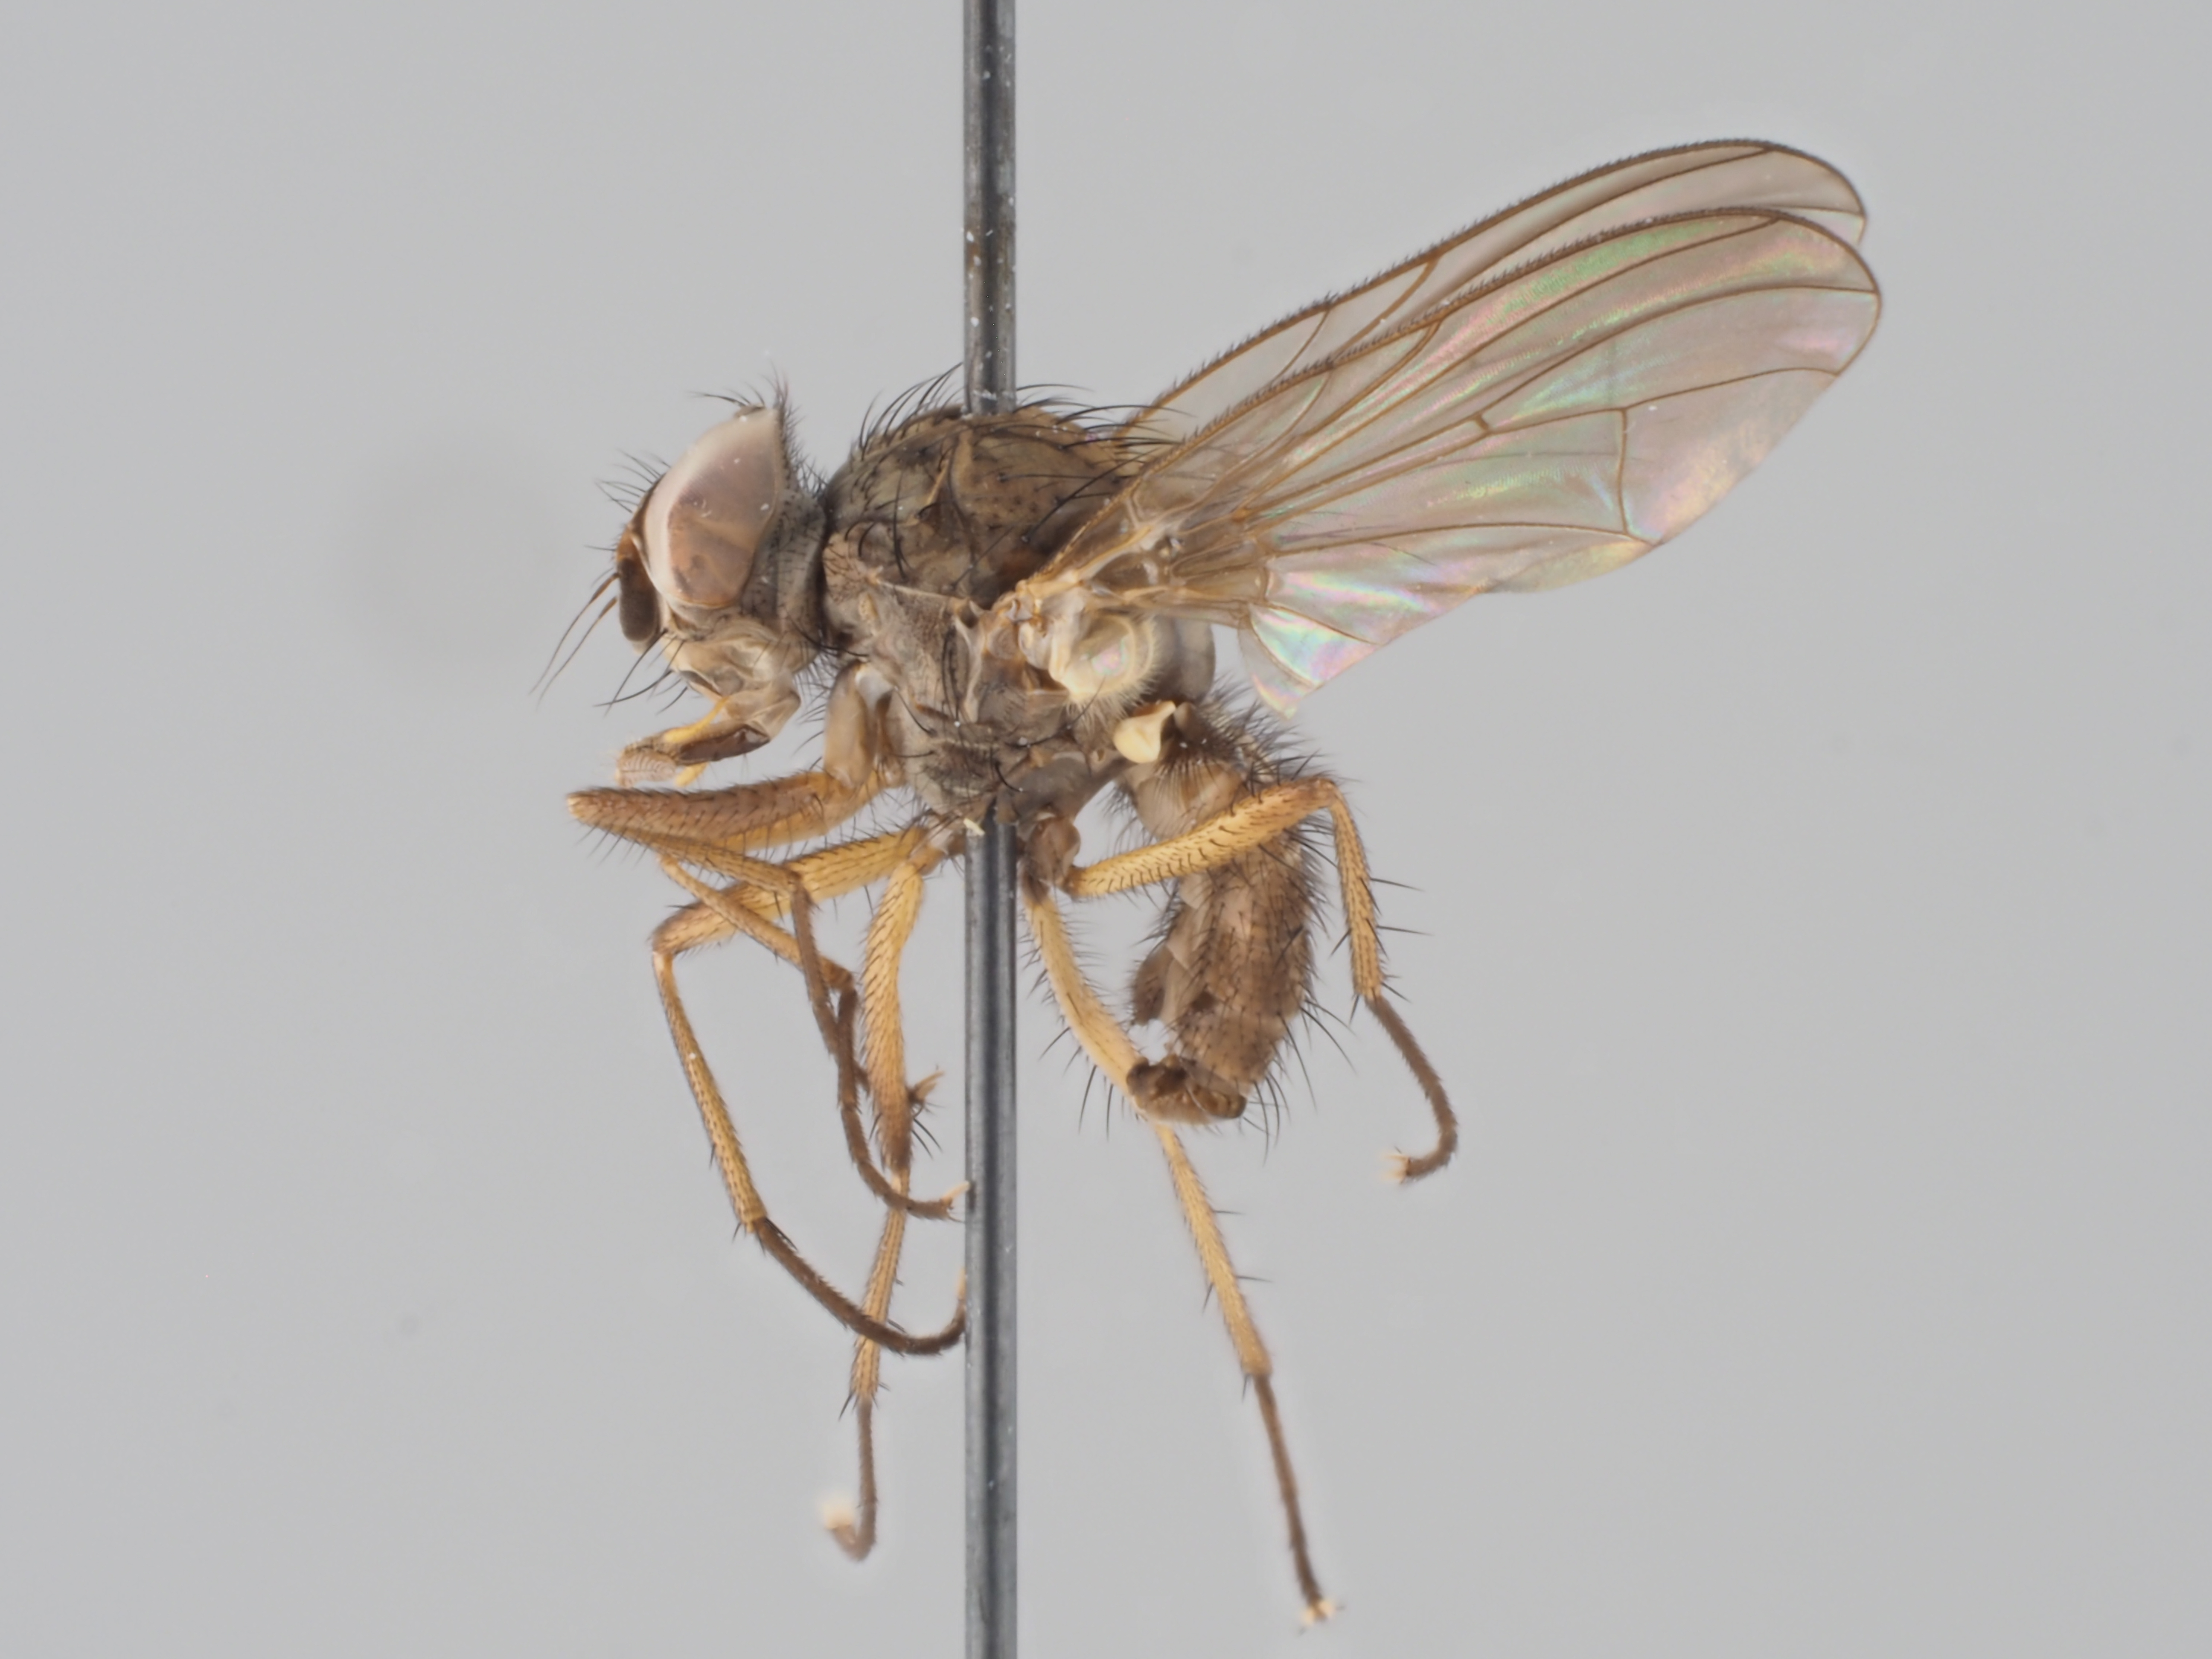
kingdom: Animalia
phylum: Arthropoda
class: Insecta
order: Diptera
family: Anthomyiidae
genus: Pegomya
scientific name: Pegomya flavoscutellata
